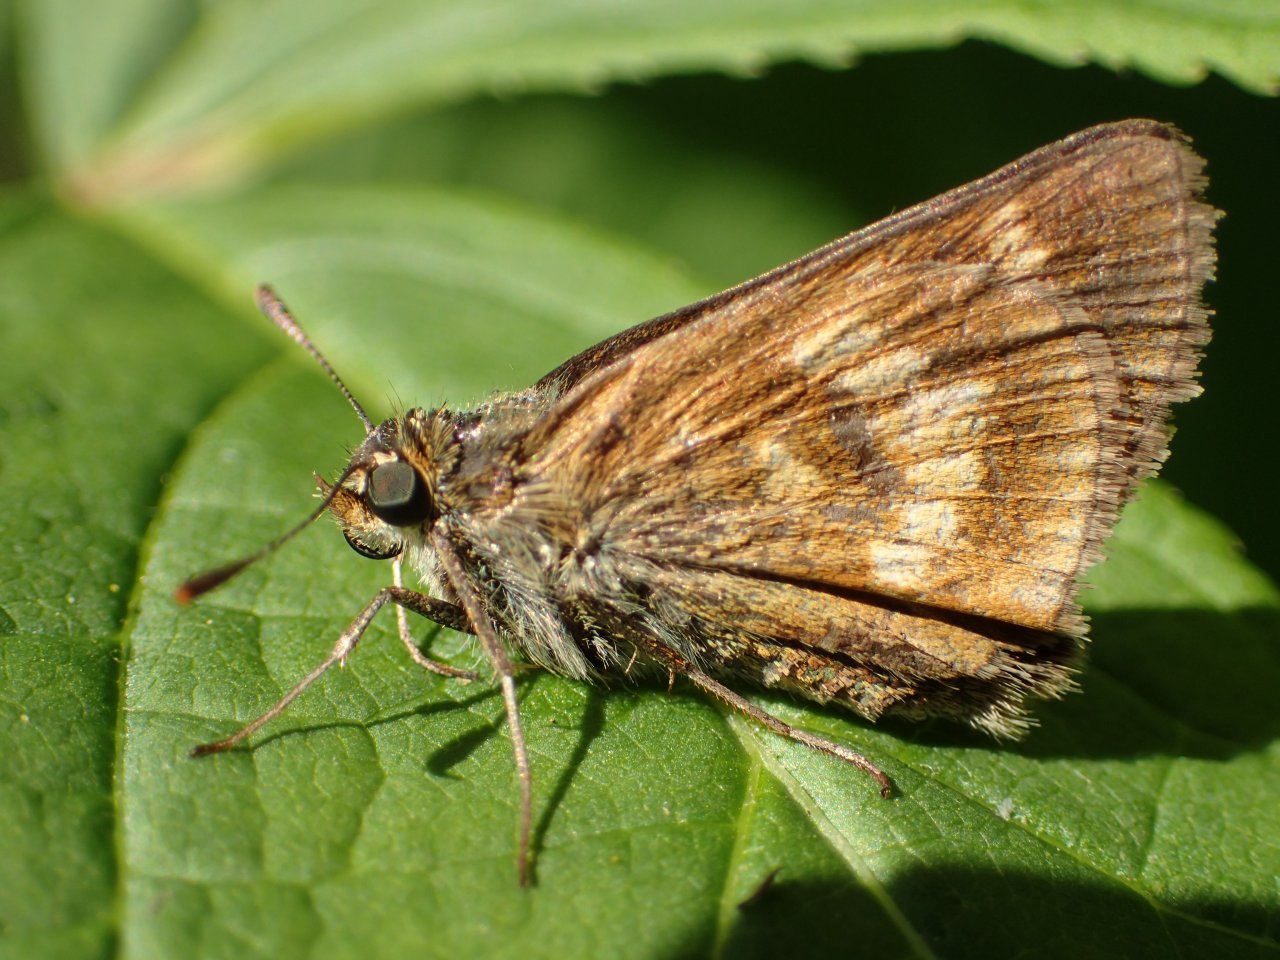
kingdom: Animalia
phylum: Arthropoda
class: Insecta
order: Lepidoptera
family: Hesperiidae
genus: Polites
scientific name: Polites
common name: Long Dash Skipper
